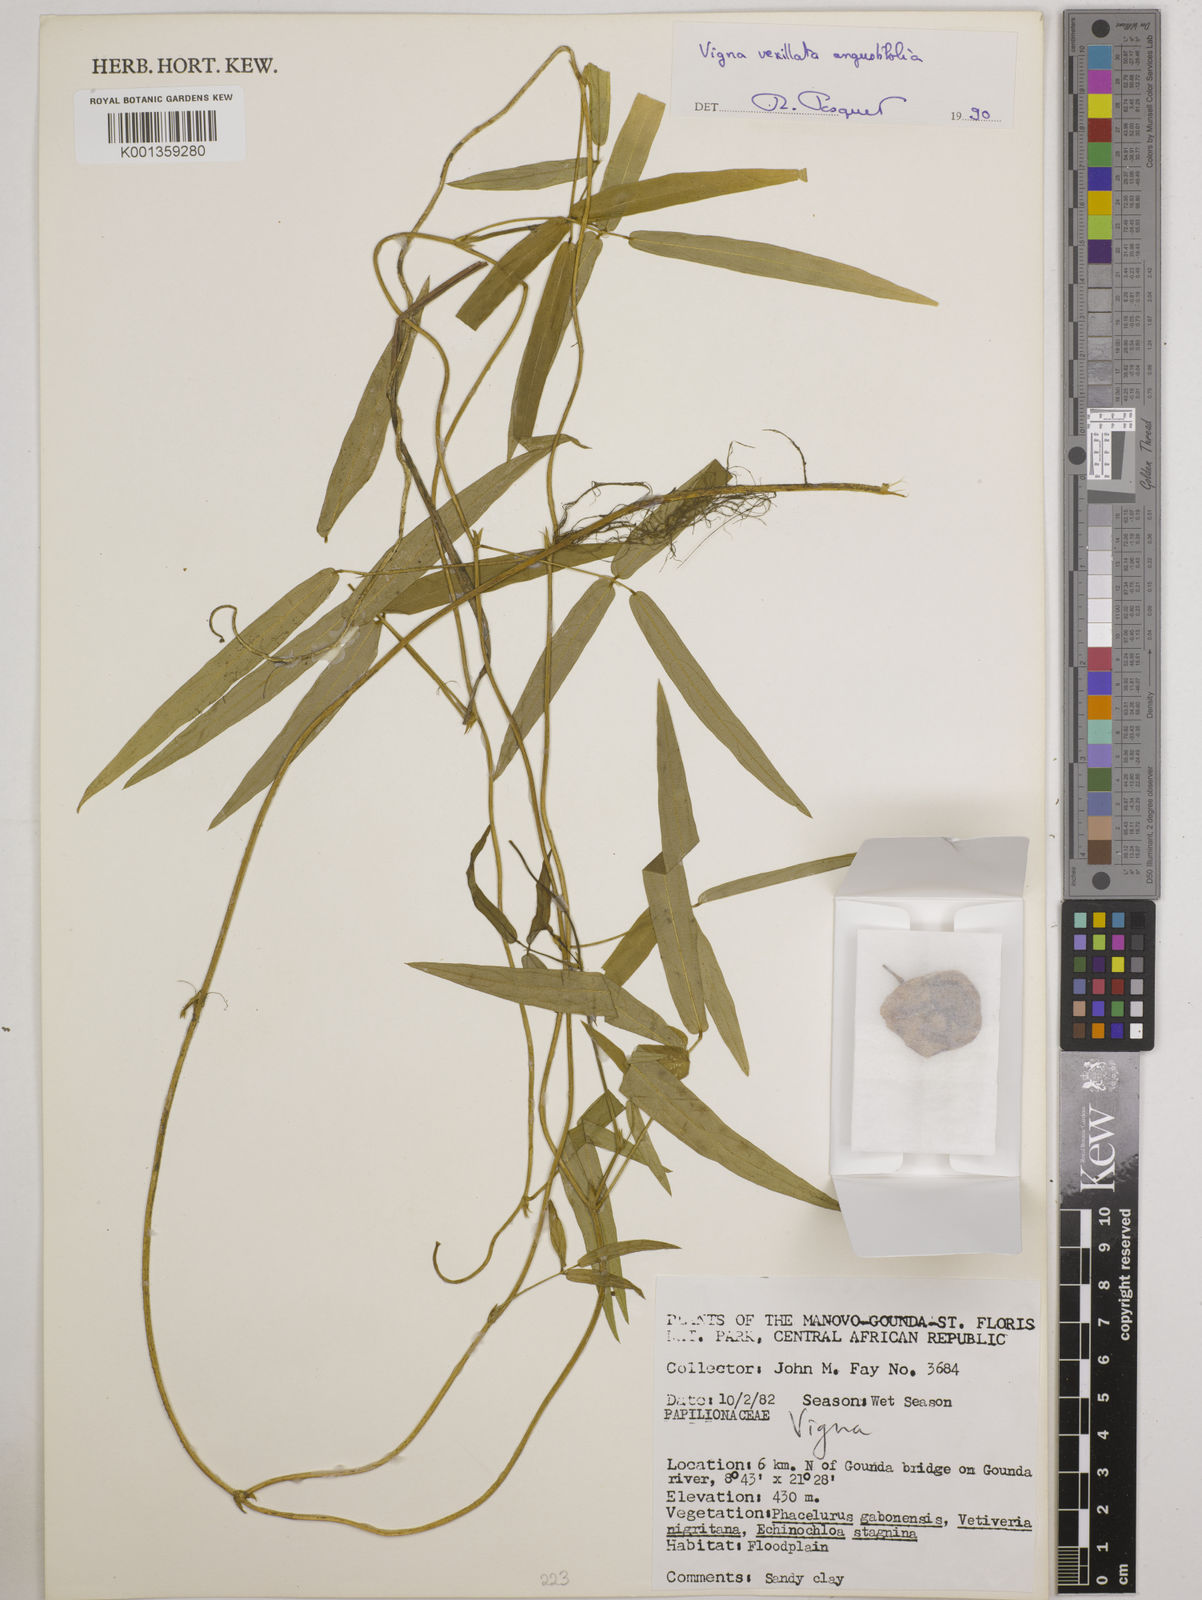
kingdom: Plantae
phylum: Tracheophyta
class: Magnoliopsida
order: Fabales
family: Fabaceae
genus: Vigna
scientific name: Vigna vexillata
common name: Zombi pea
